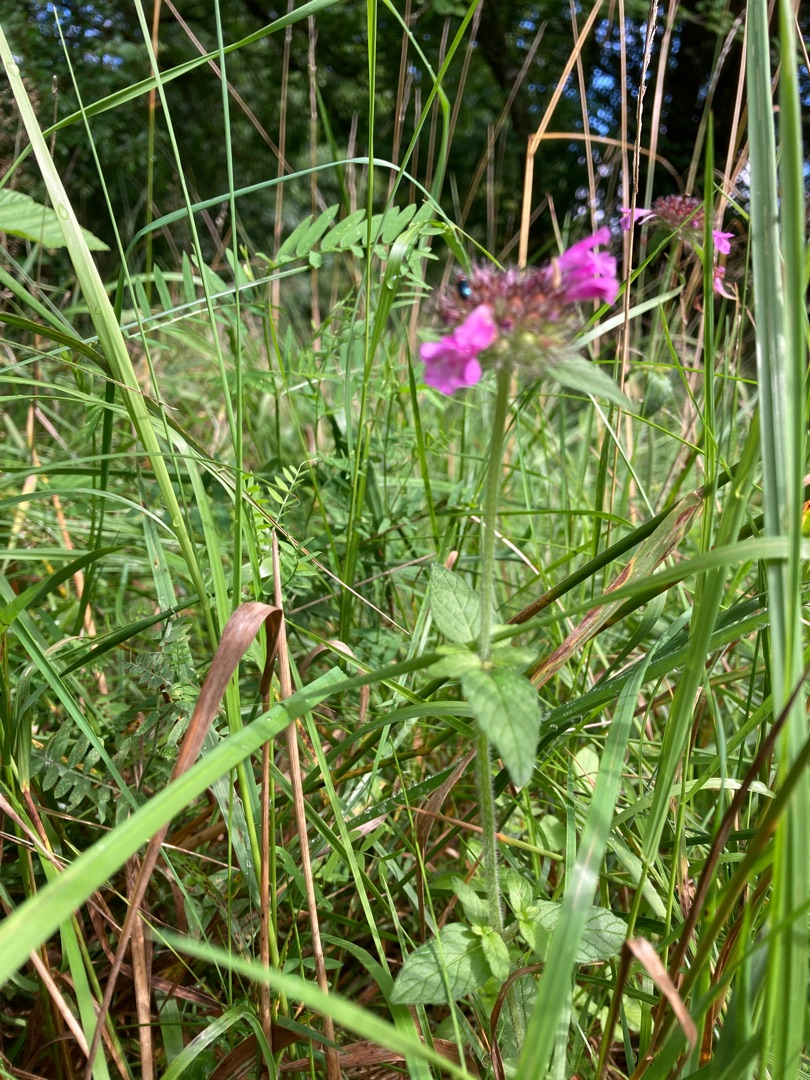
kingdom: Plantae
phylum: Tracheophyta
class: Magnoliopsida
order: Lamiales
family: Lamiaceae
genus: Clinopodium
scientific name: Clinopodium vulgare
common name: Kransbørste
